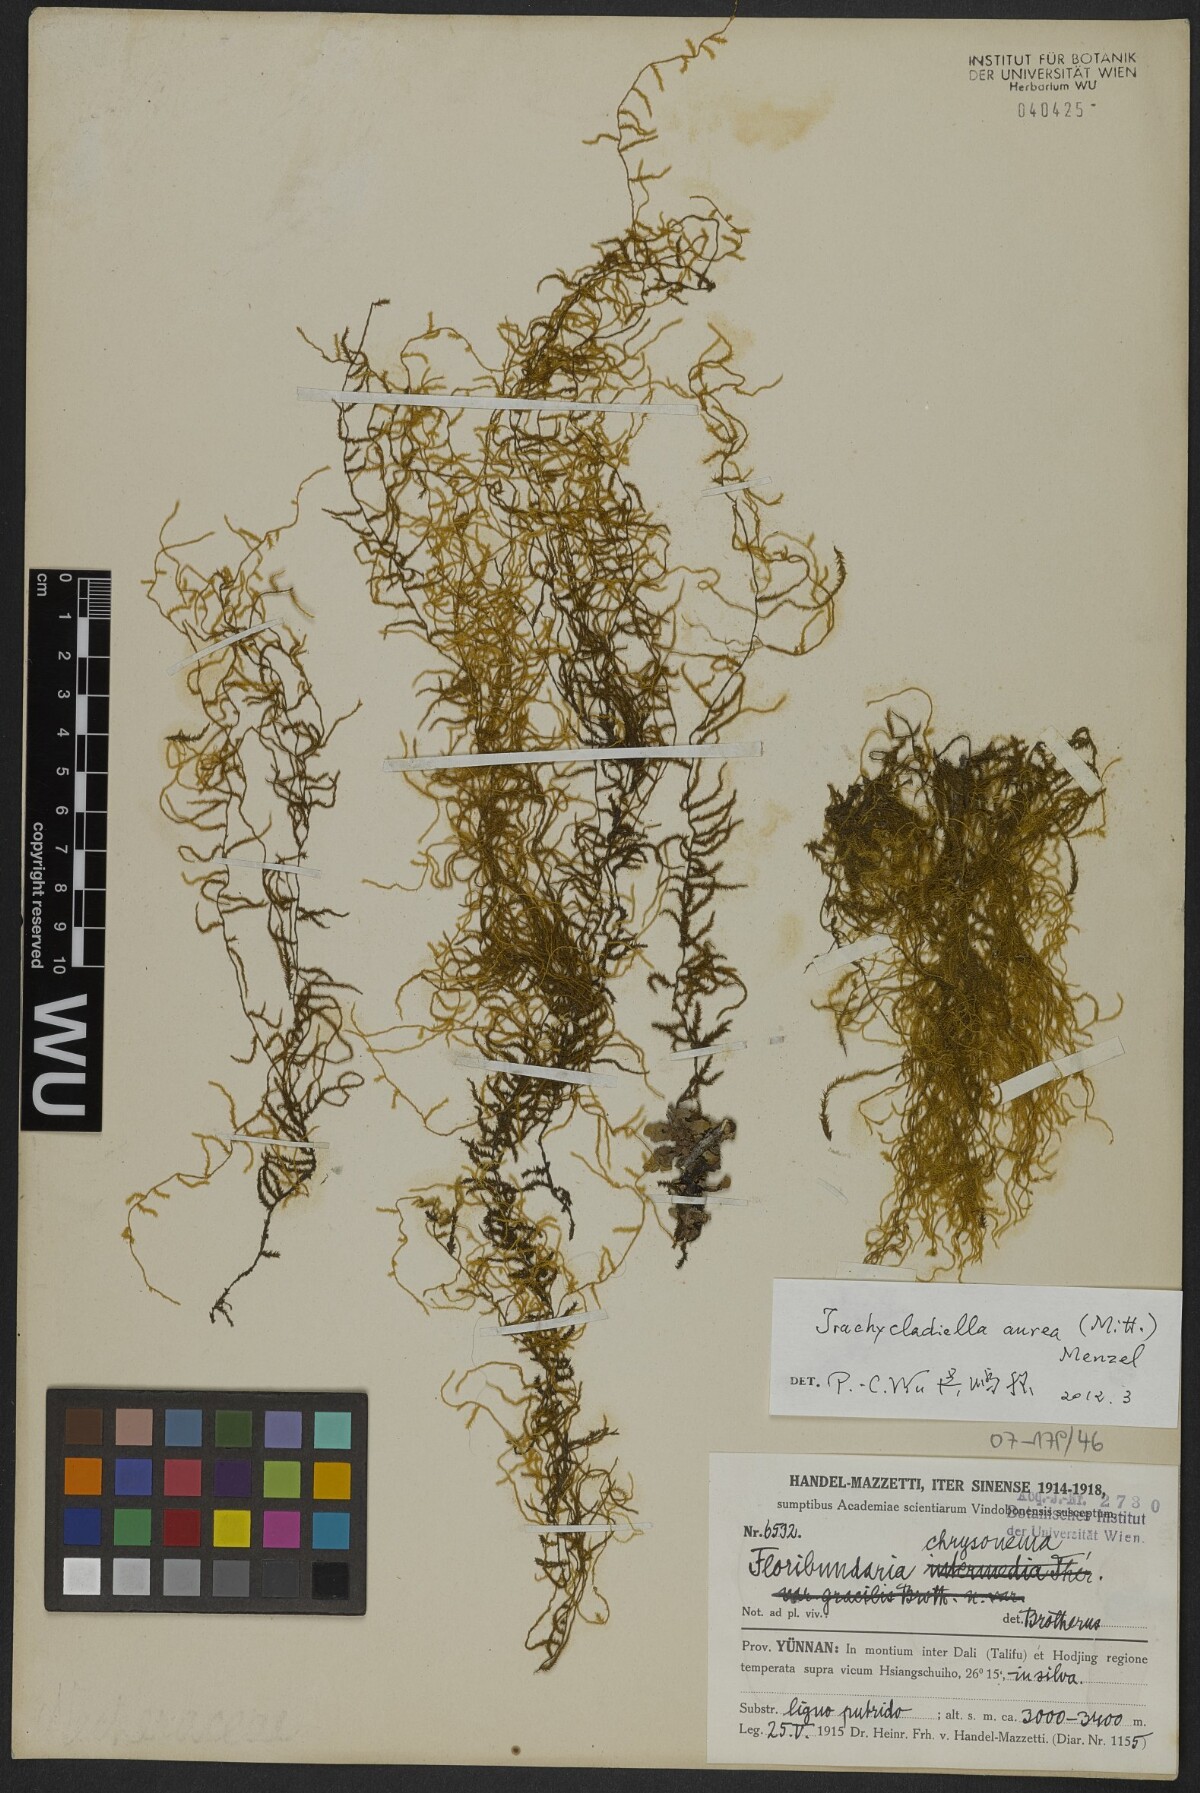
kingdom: Plantae
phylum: Bryophyta
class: Bryopsida
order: Hypnales
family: Meteoriaceae
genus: Trachycladiella
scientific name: Trachycladiella aurea
